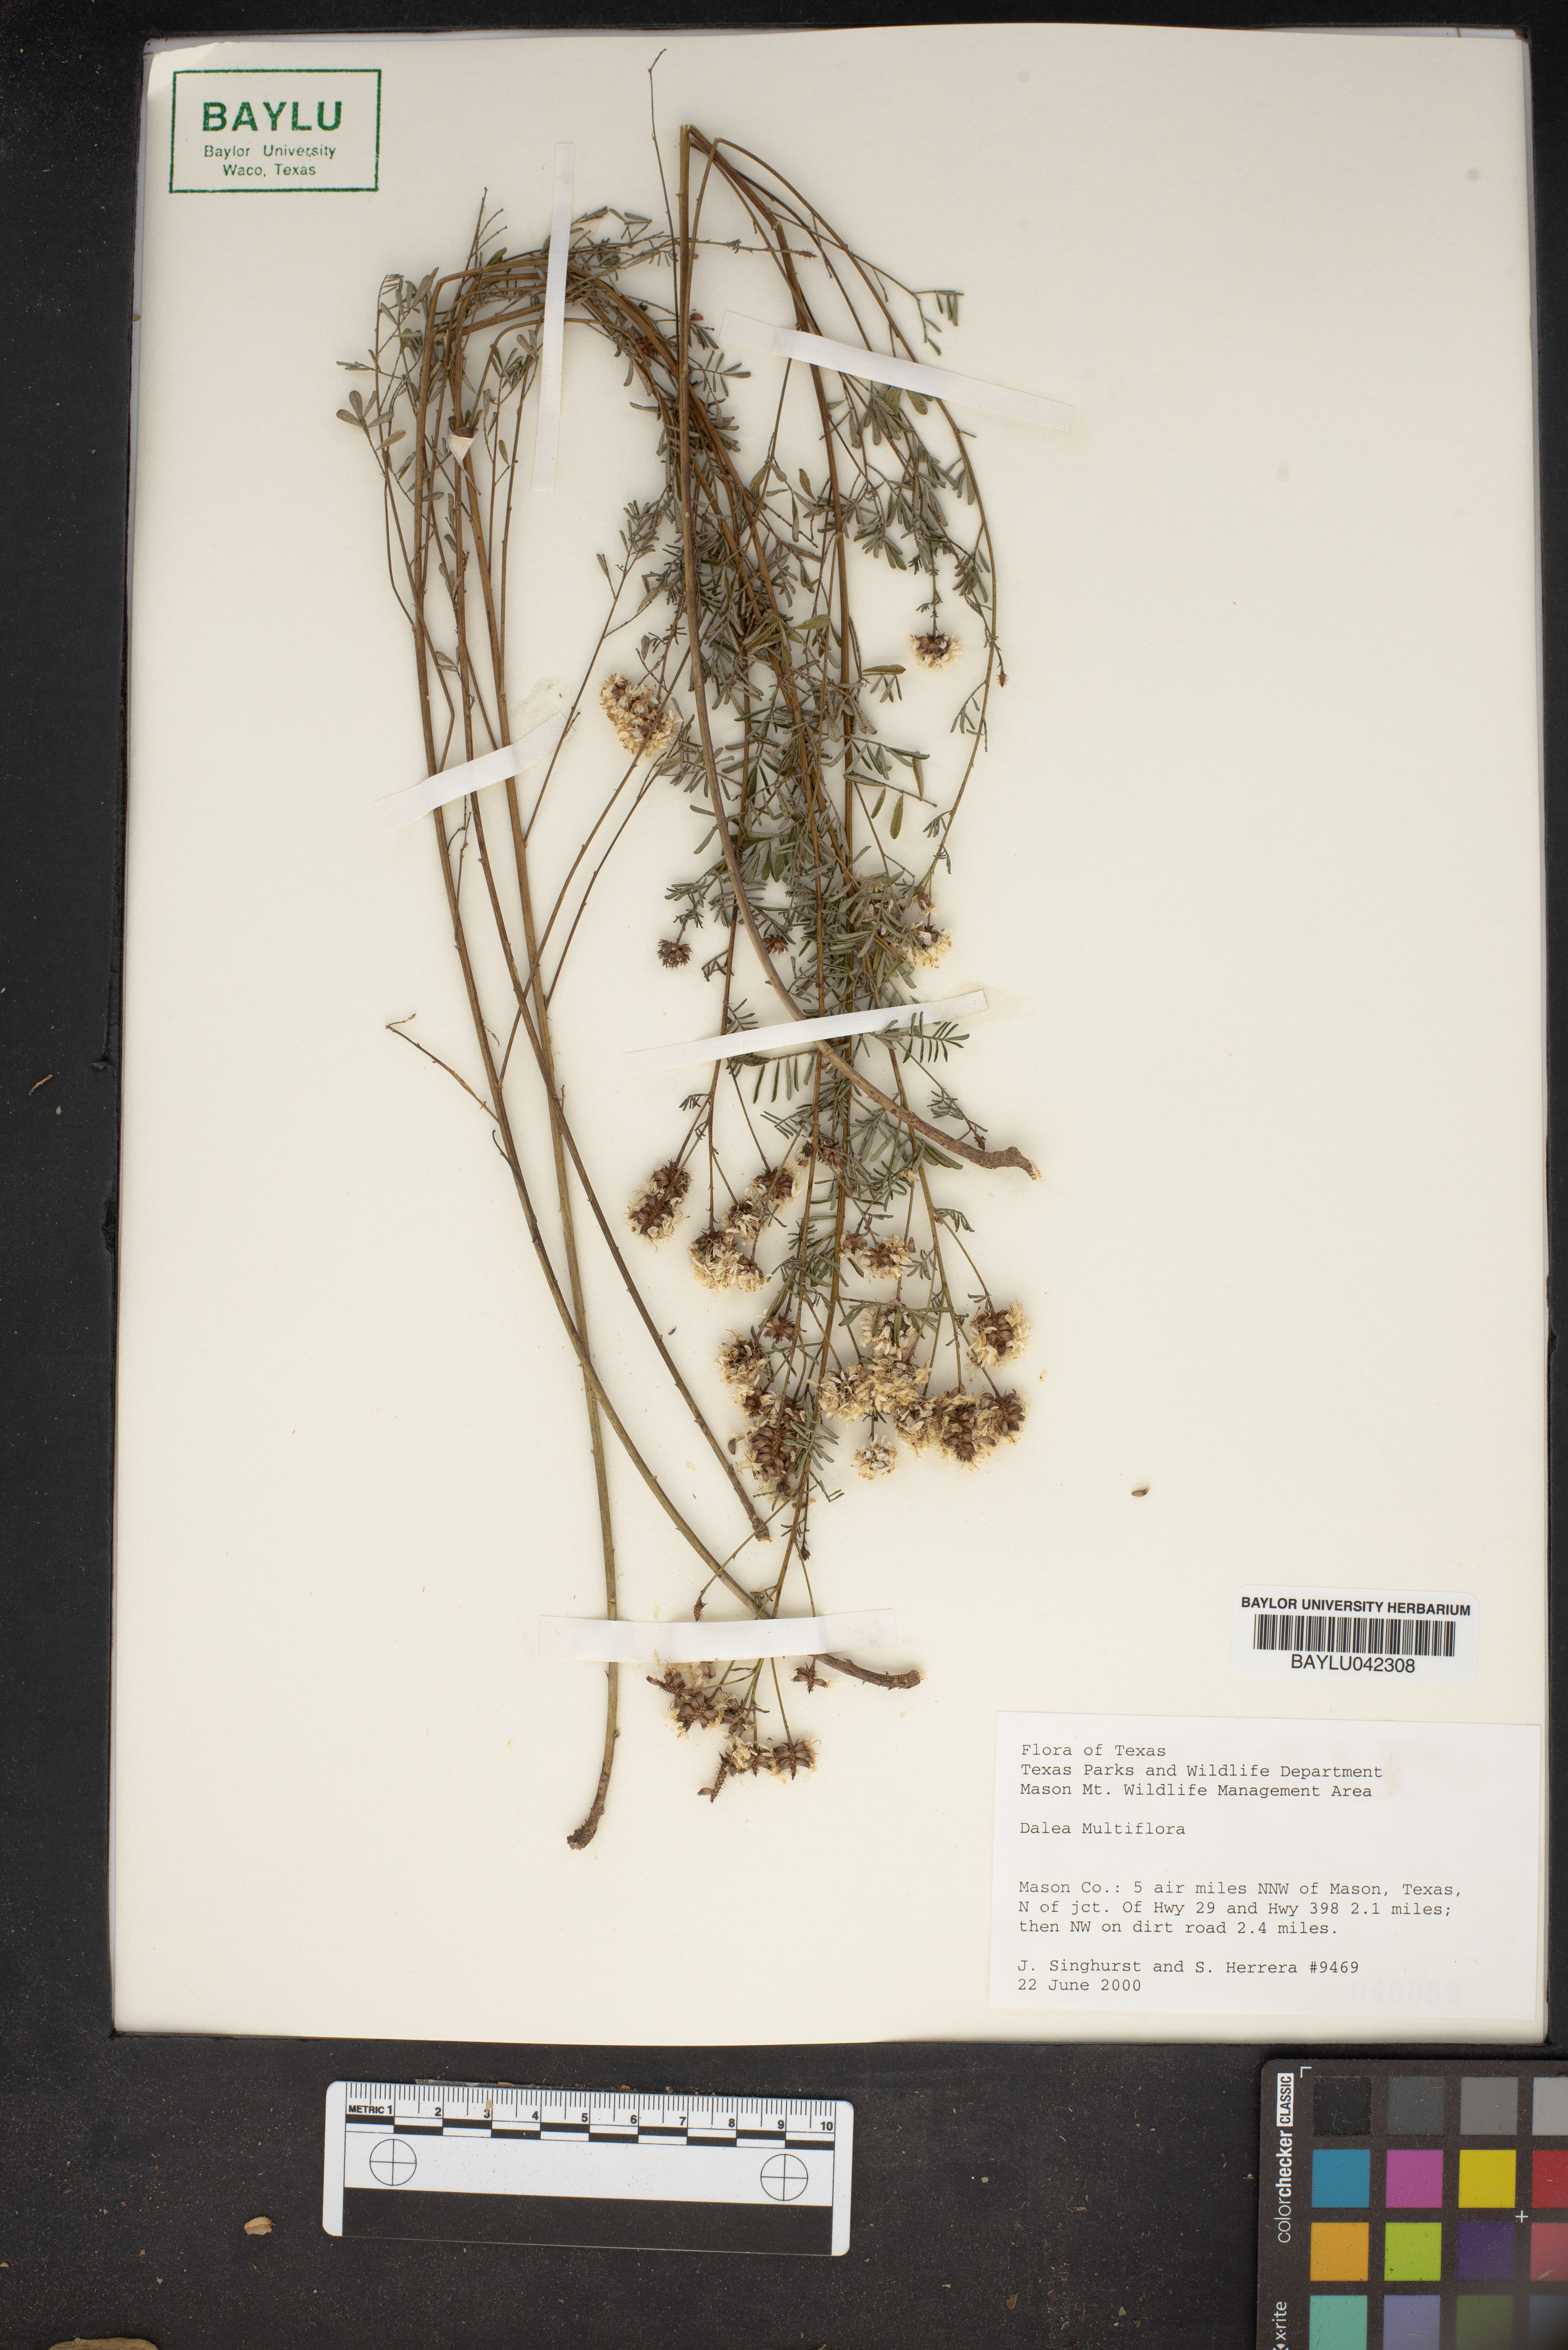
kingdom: Plantae
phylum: Tracheophyta
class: Magnoliopsida
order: Fabales
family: Fabaceae
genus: Dalea
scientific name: Dalea multiflora
